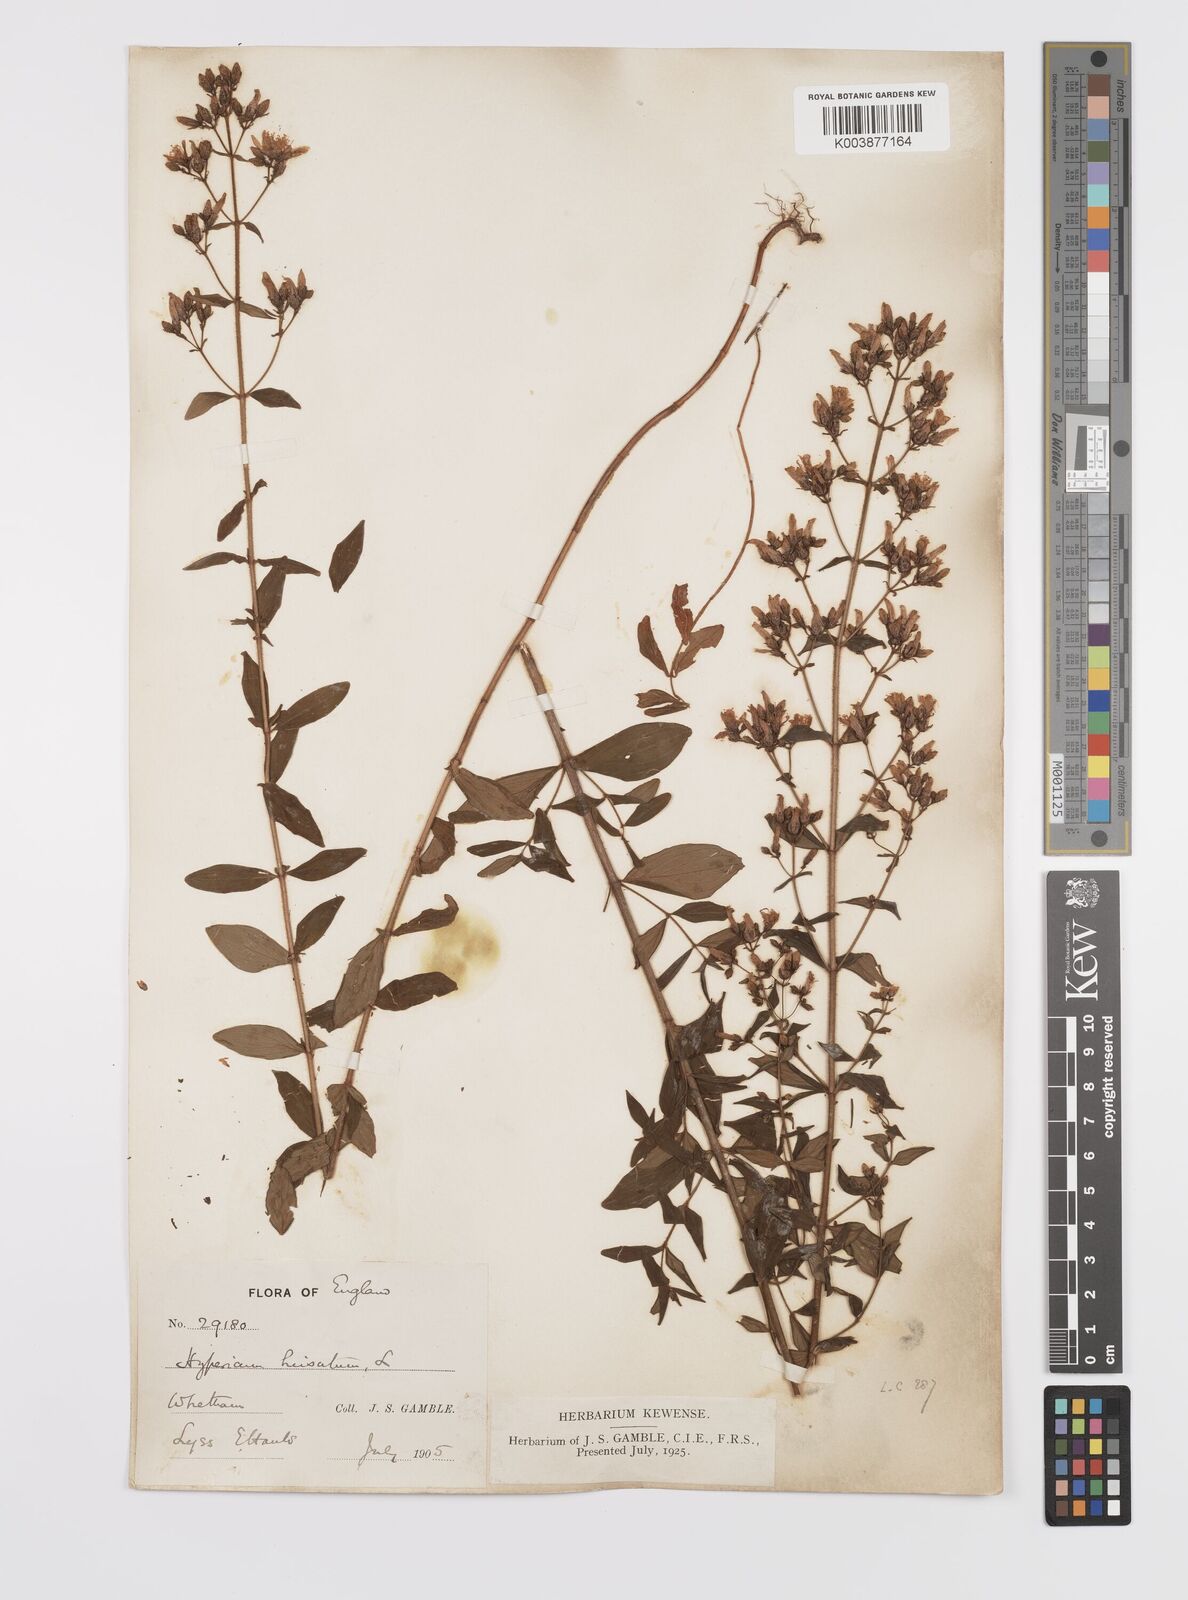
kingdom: Plantae
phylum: Tracheophyta
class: Magnoliopsida
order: Malpighiales
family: Hypericaceae
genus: Hypericum
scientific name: Hypericum hirsutum
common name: Hairy st. john's-wort
